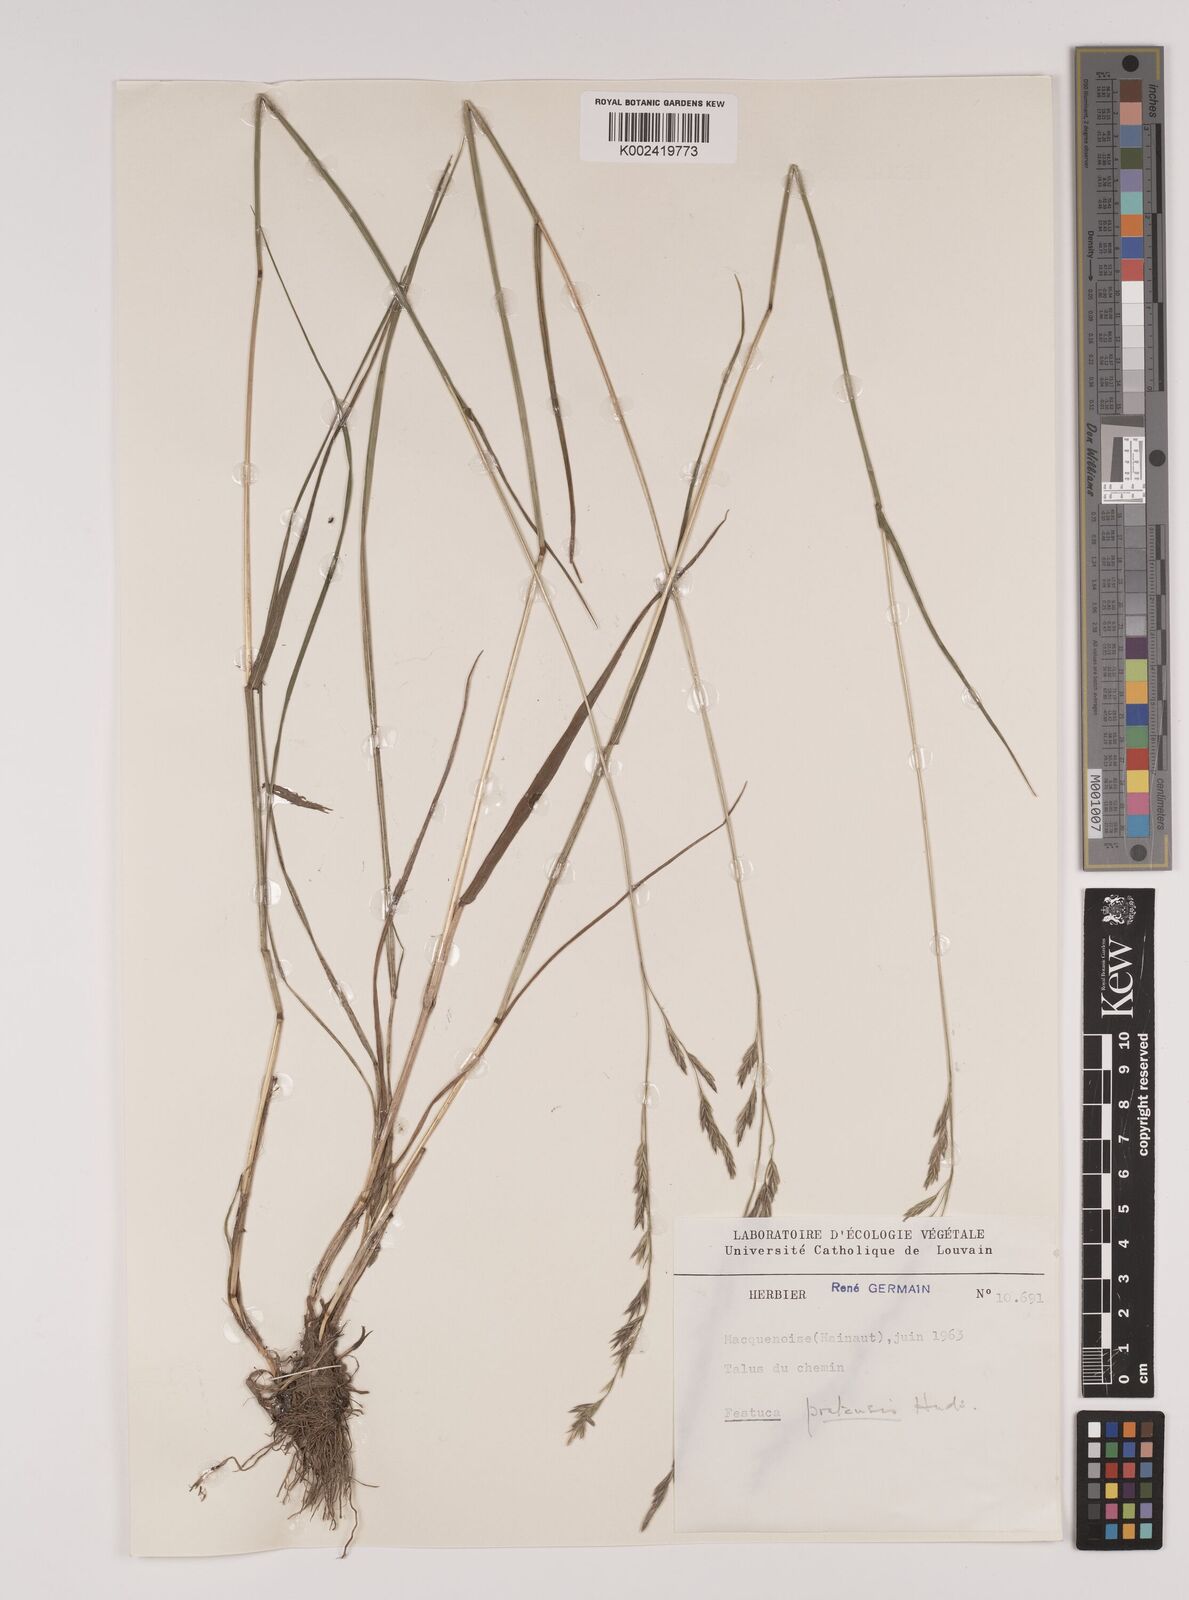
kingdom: Plantae
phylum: Tracheophyta
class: Liliopsida
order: Poales
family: Poaceae
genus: Lolium
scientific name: Lolium pratense
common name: Dover grass
